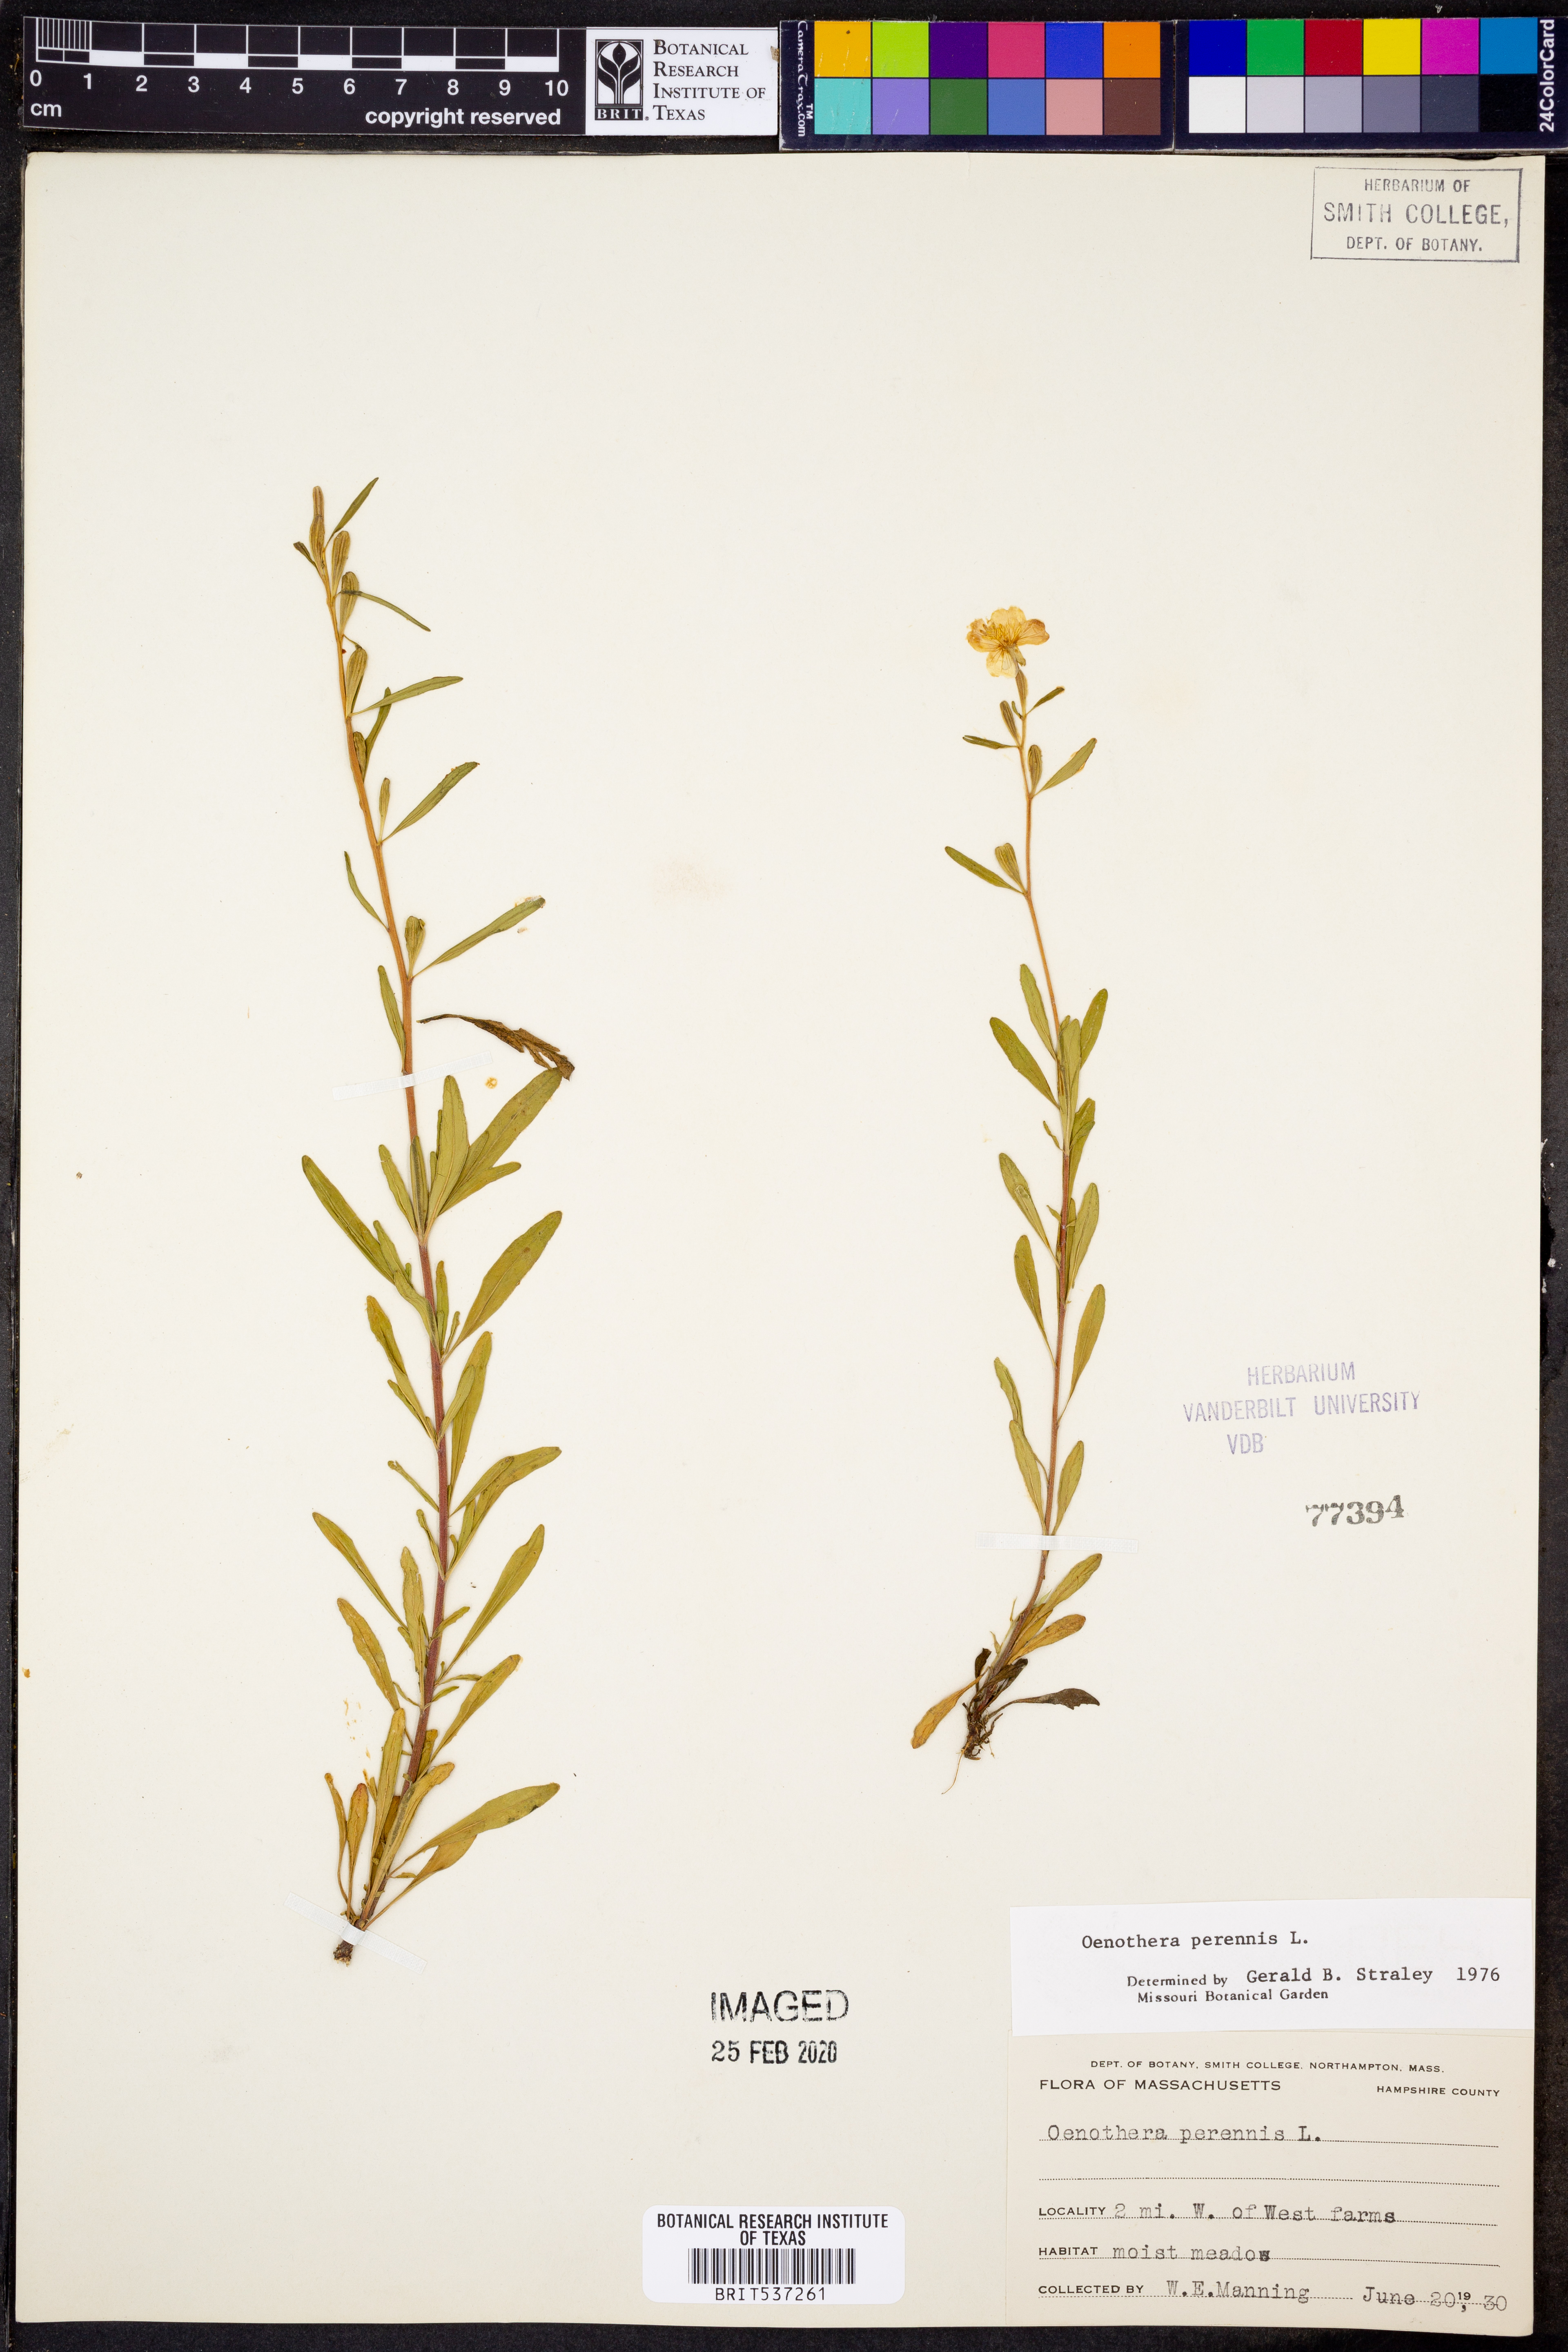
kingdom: Plantae
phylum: Tracheophyta
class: Magnoliopsida
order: Myrtales
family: Onagraceae
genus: Oenothera
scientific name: Oenothera perennis
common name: Small sundrops
